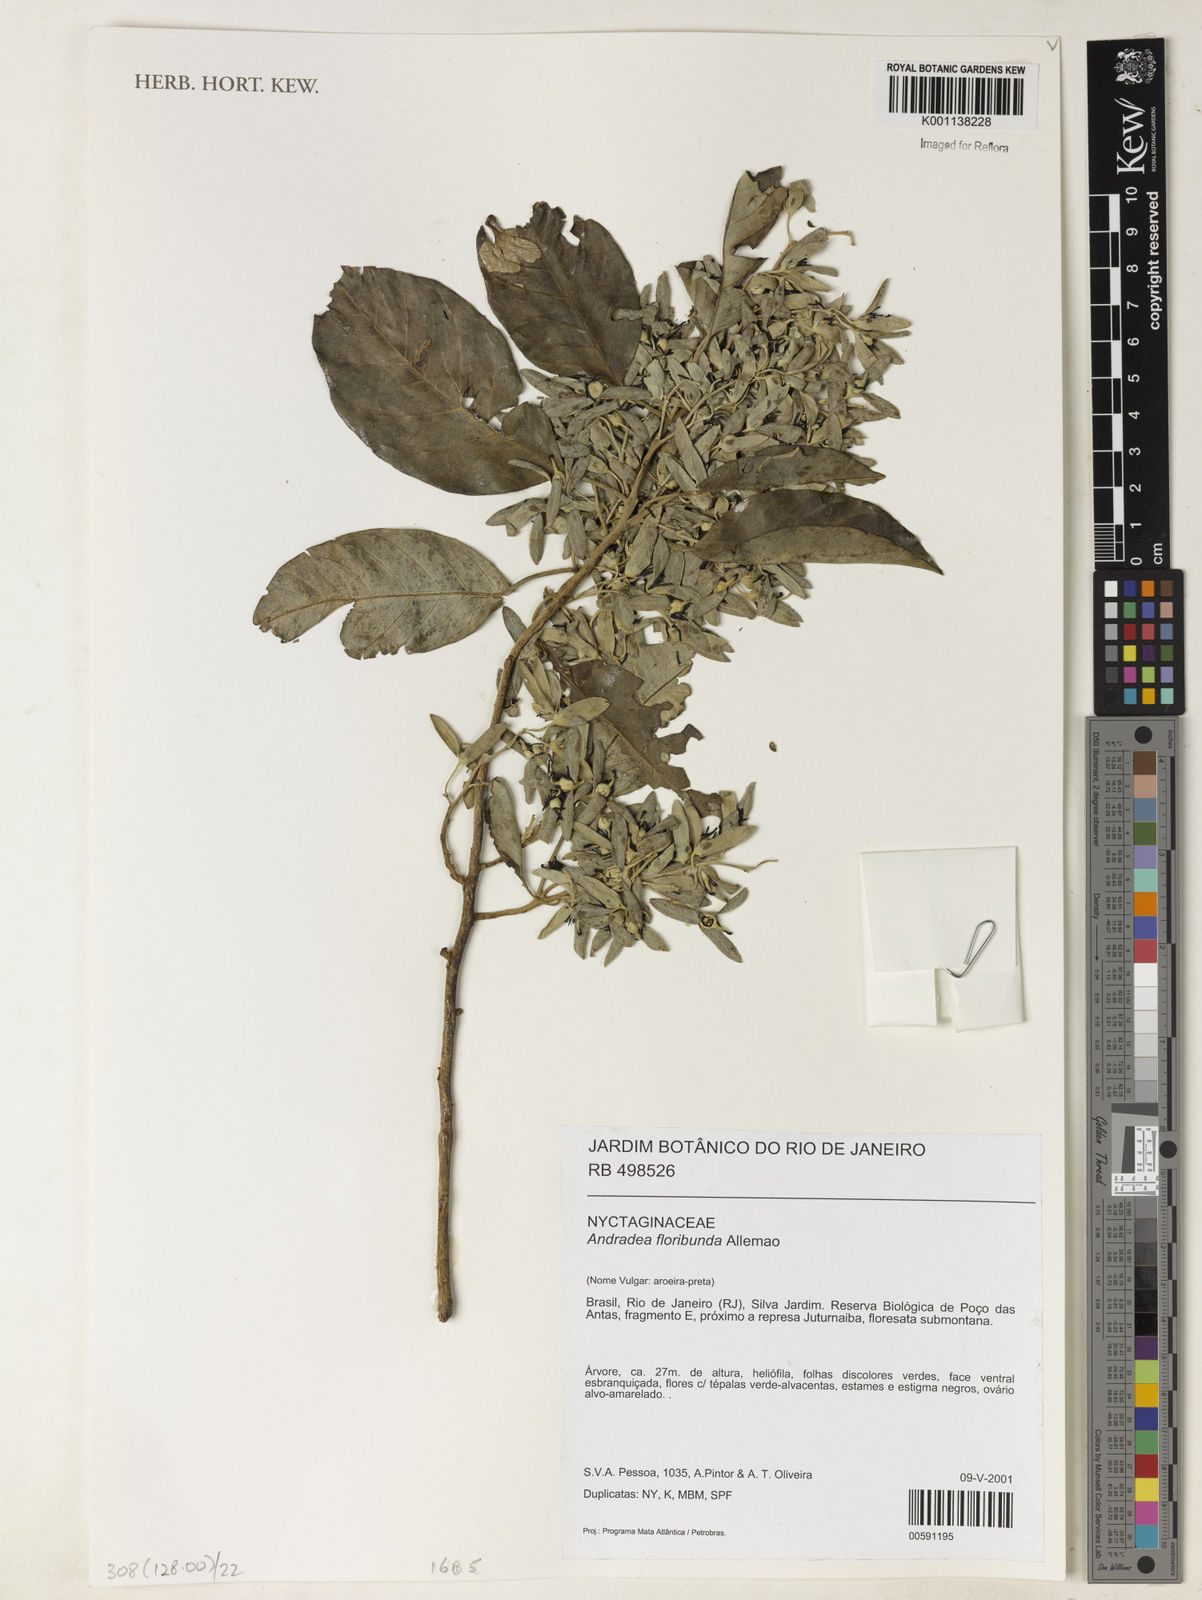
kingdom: Plantae
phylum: Tracheophyta
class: Magnoliopsida
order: Caryophyllales
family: Nyctaginaceae
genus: Andradea
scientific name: Andradea
